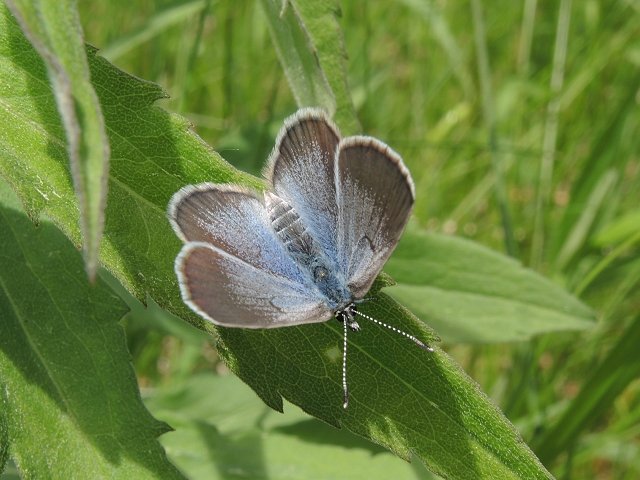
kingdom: Animalia
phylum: Arthropoda
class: Insecta
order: Lepidoptera
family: Lycaenidae
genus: Glaucopsyche
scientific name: Glaucopsyche lygdamus
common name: Silvery Blue
